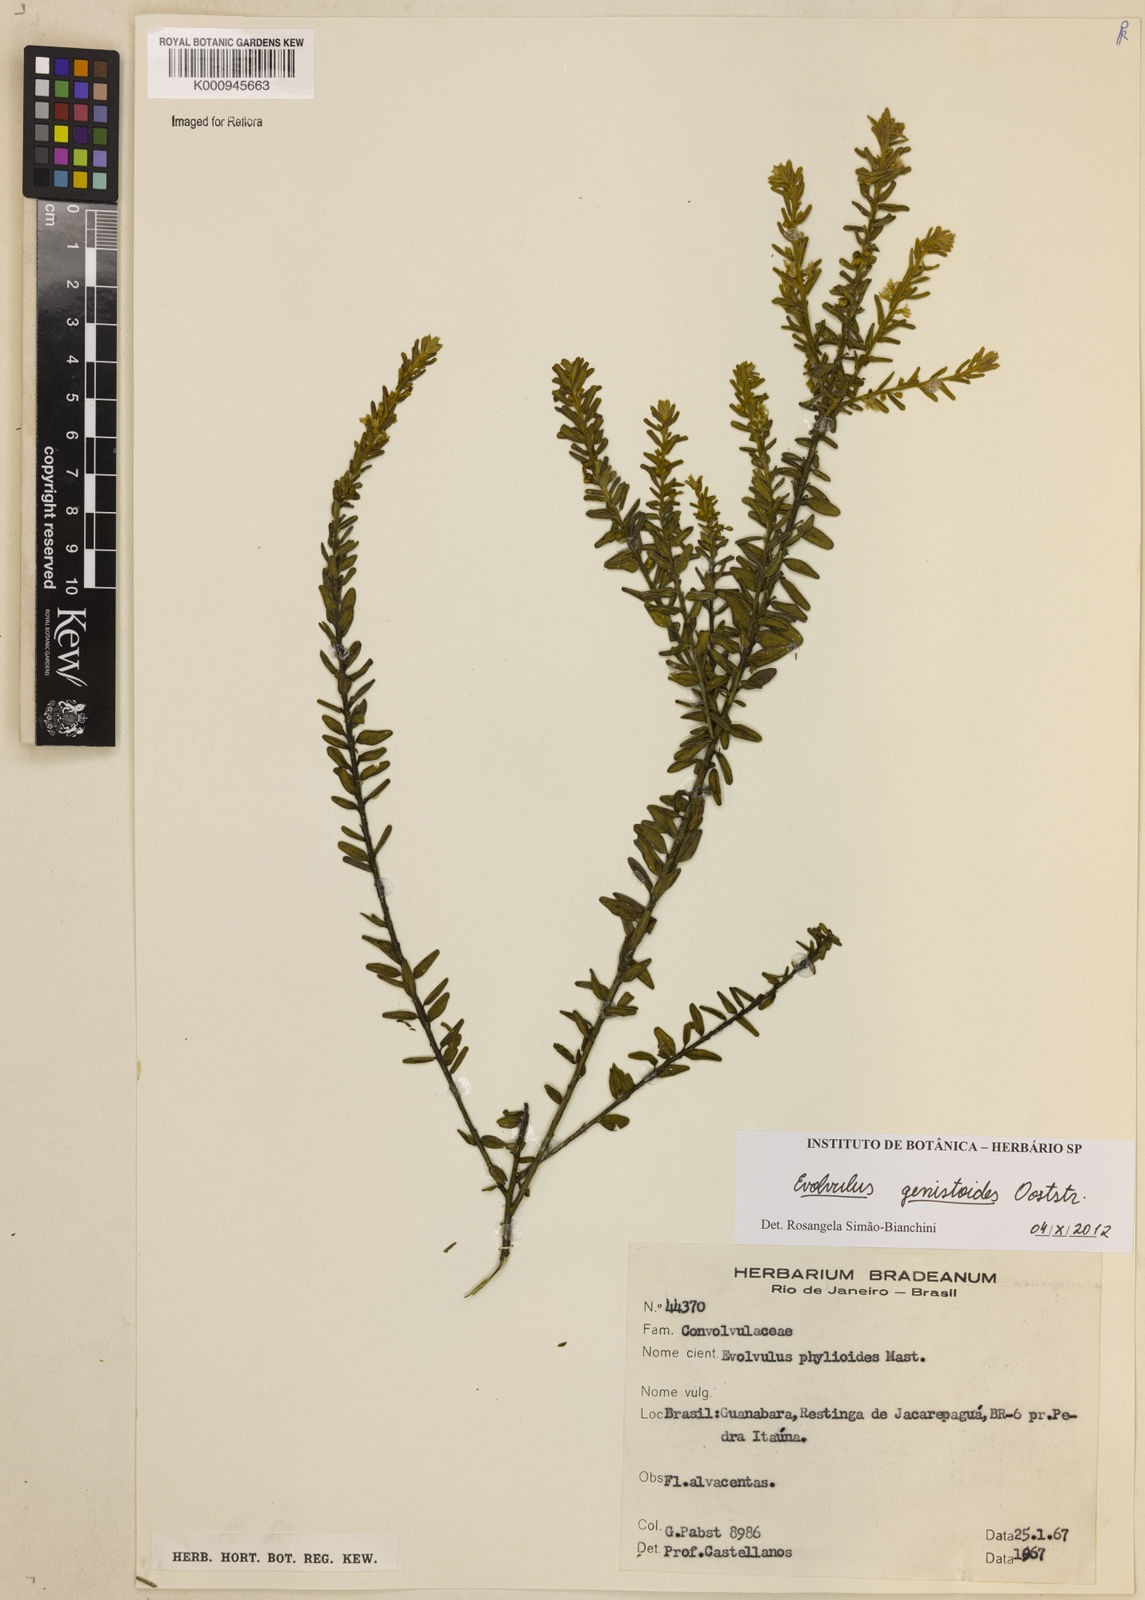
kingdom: Plantae
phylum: Tracheophyta
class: Magnoliopsida
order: Solanales
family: Convolvulaceae
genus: Evolvulus
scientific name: Evolvulus genistoides
